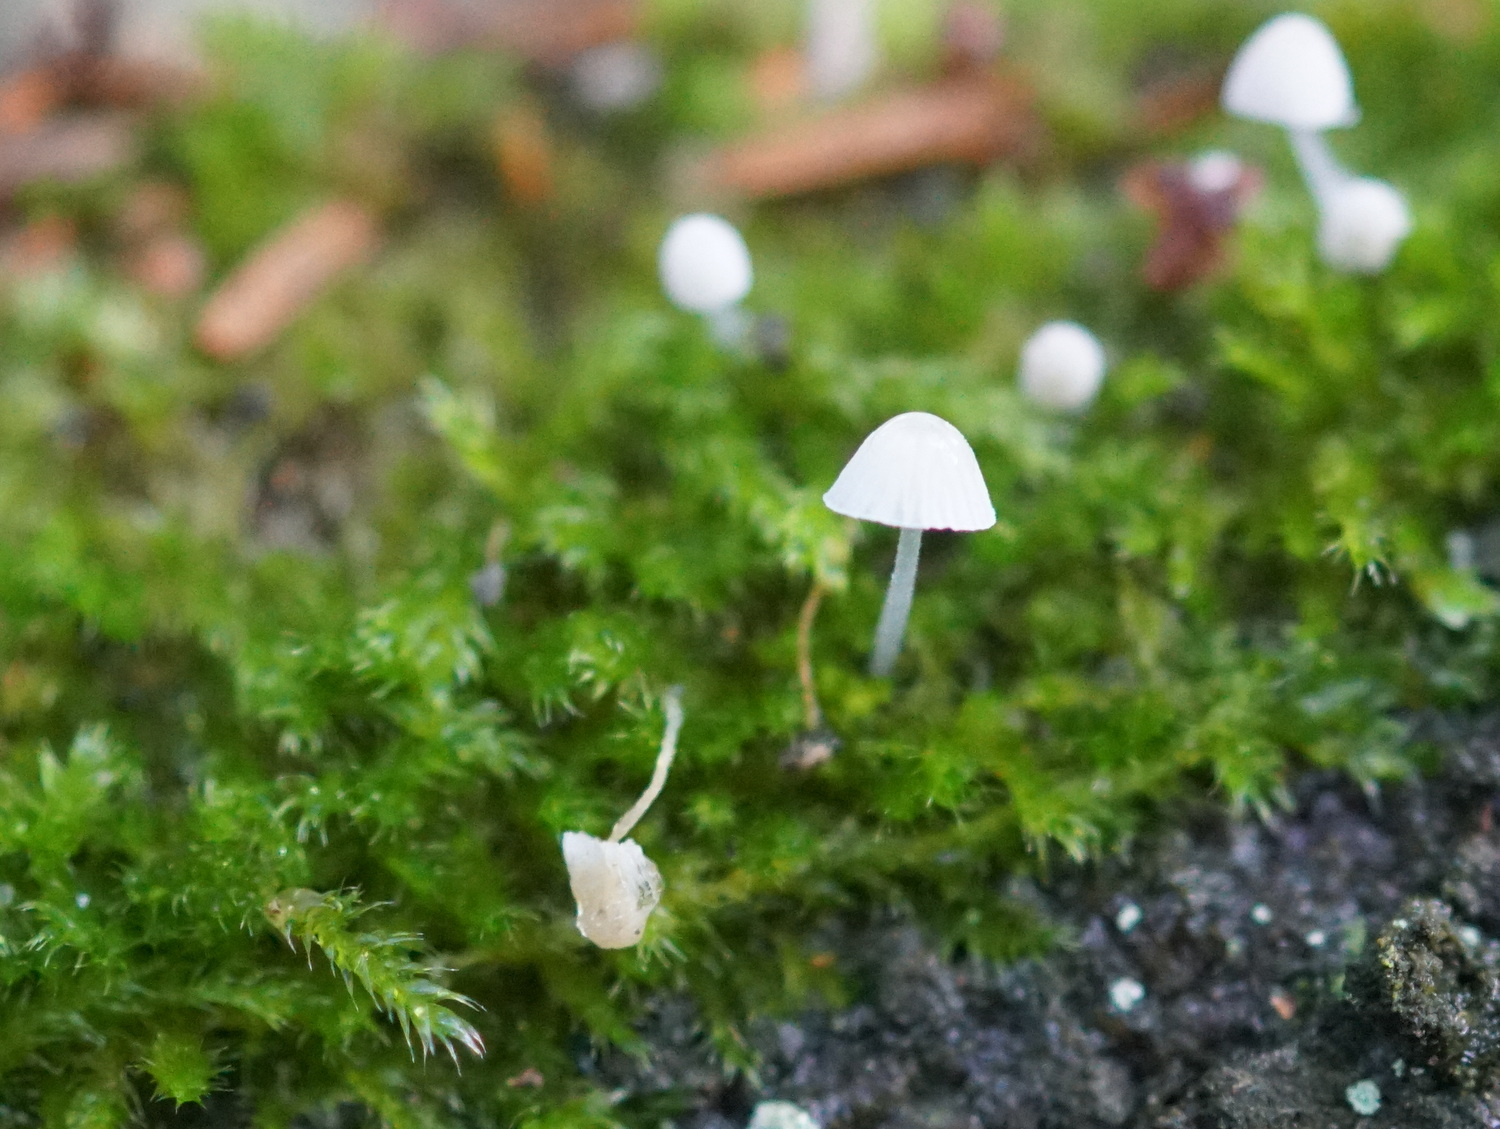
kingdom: Fungi
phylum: Basidiomycota
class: Agaricomycetes
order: Agaricales
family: Mycenaceae
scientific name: Mycenaceae
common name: huesvampfamilien
